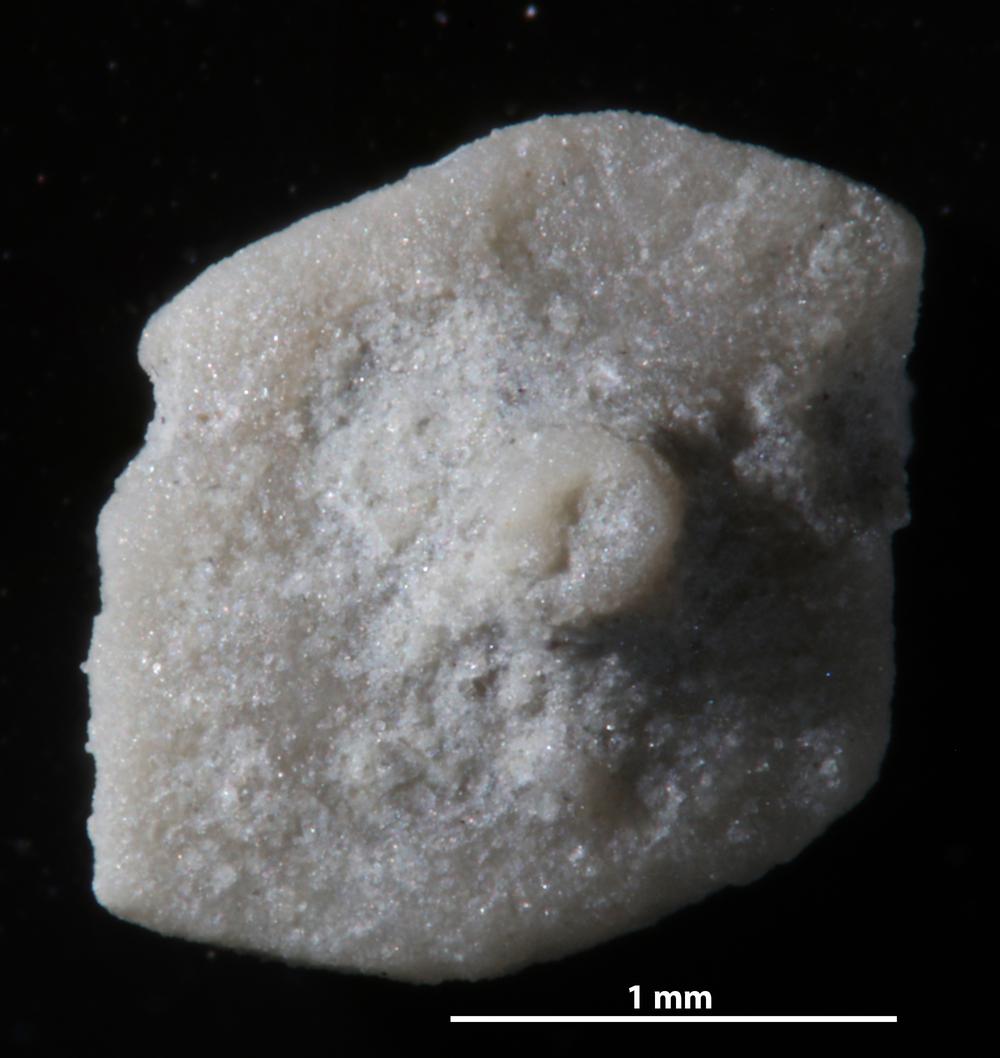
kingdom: Animalia
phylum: Echinodermata
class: Echinoidea
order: Bothriocidaroida
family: Bothriocidaridae
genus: Neobothriocidaris
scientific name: Neobothriocidaris
